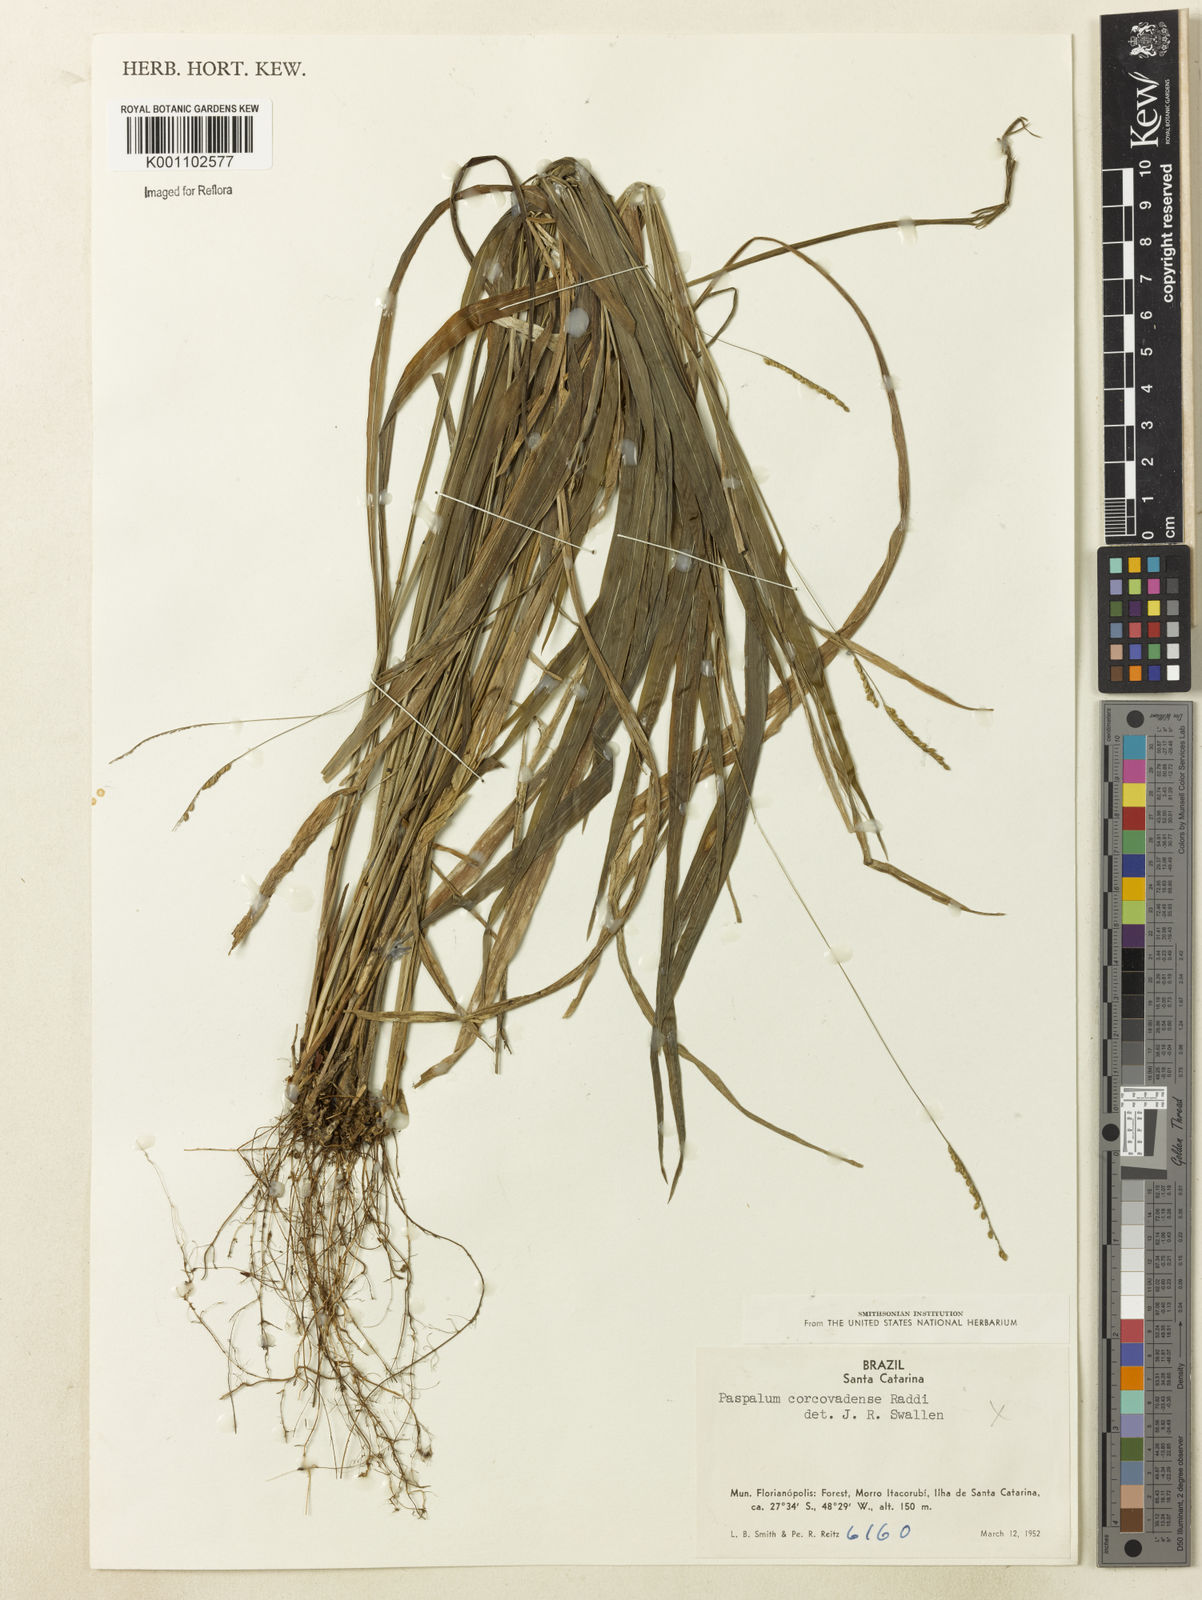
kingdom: Plantae
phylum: Tracheophyta
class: Liliopsida
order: Poales
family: Poaceae
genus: Paspalum
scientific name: Paspalum corcovadense
